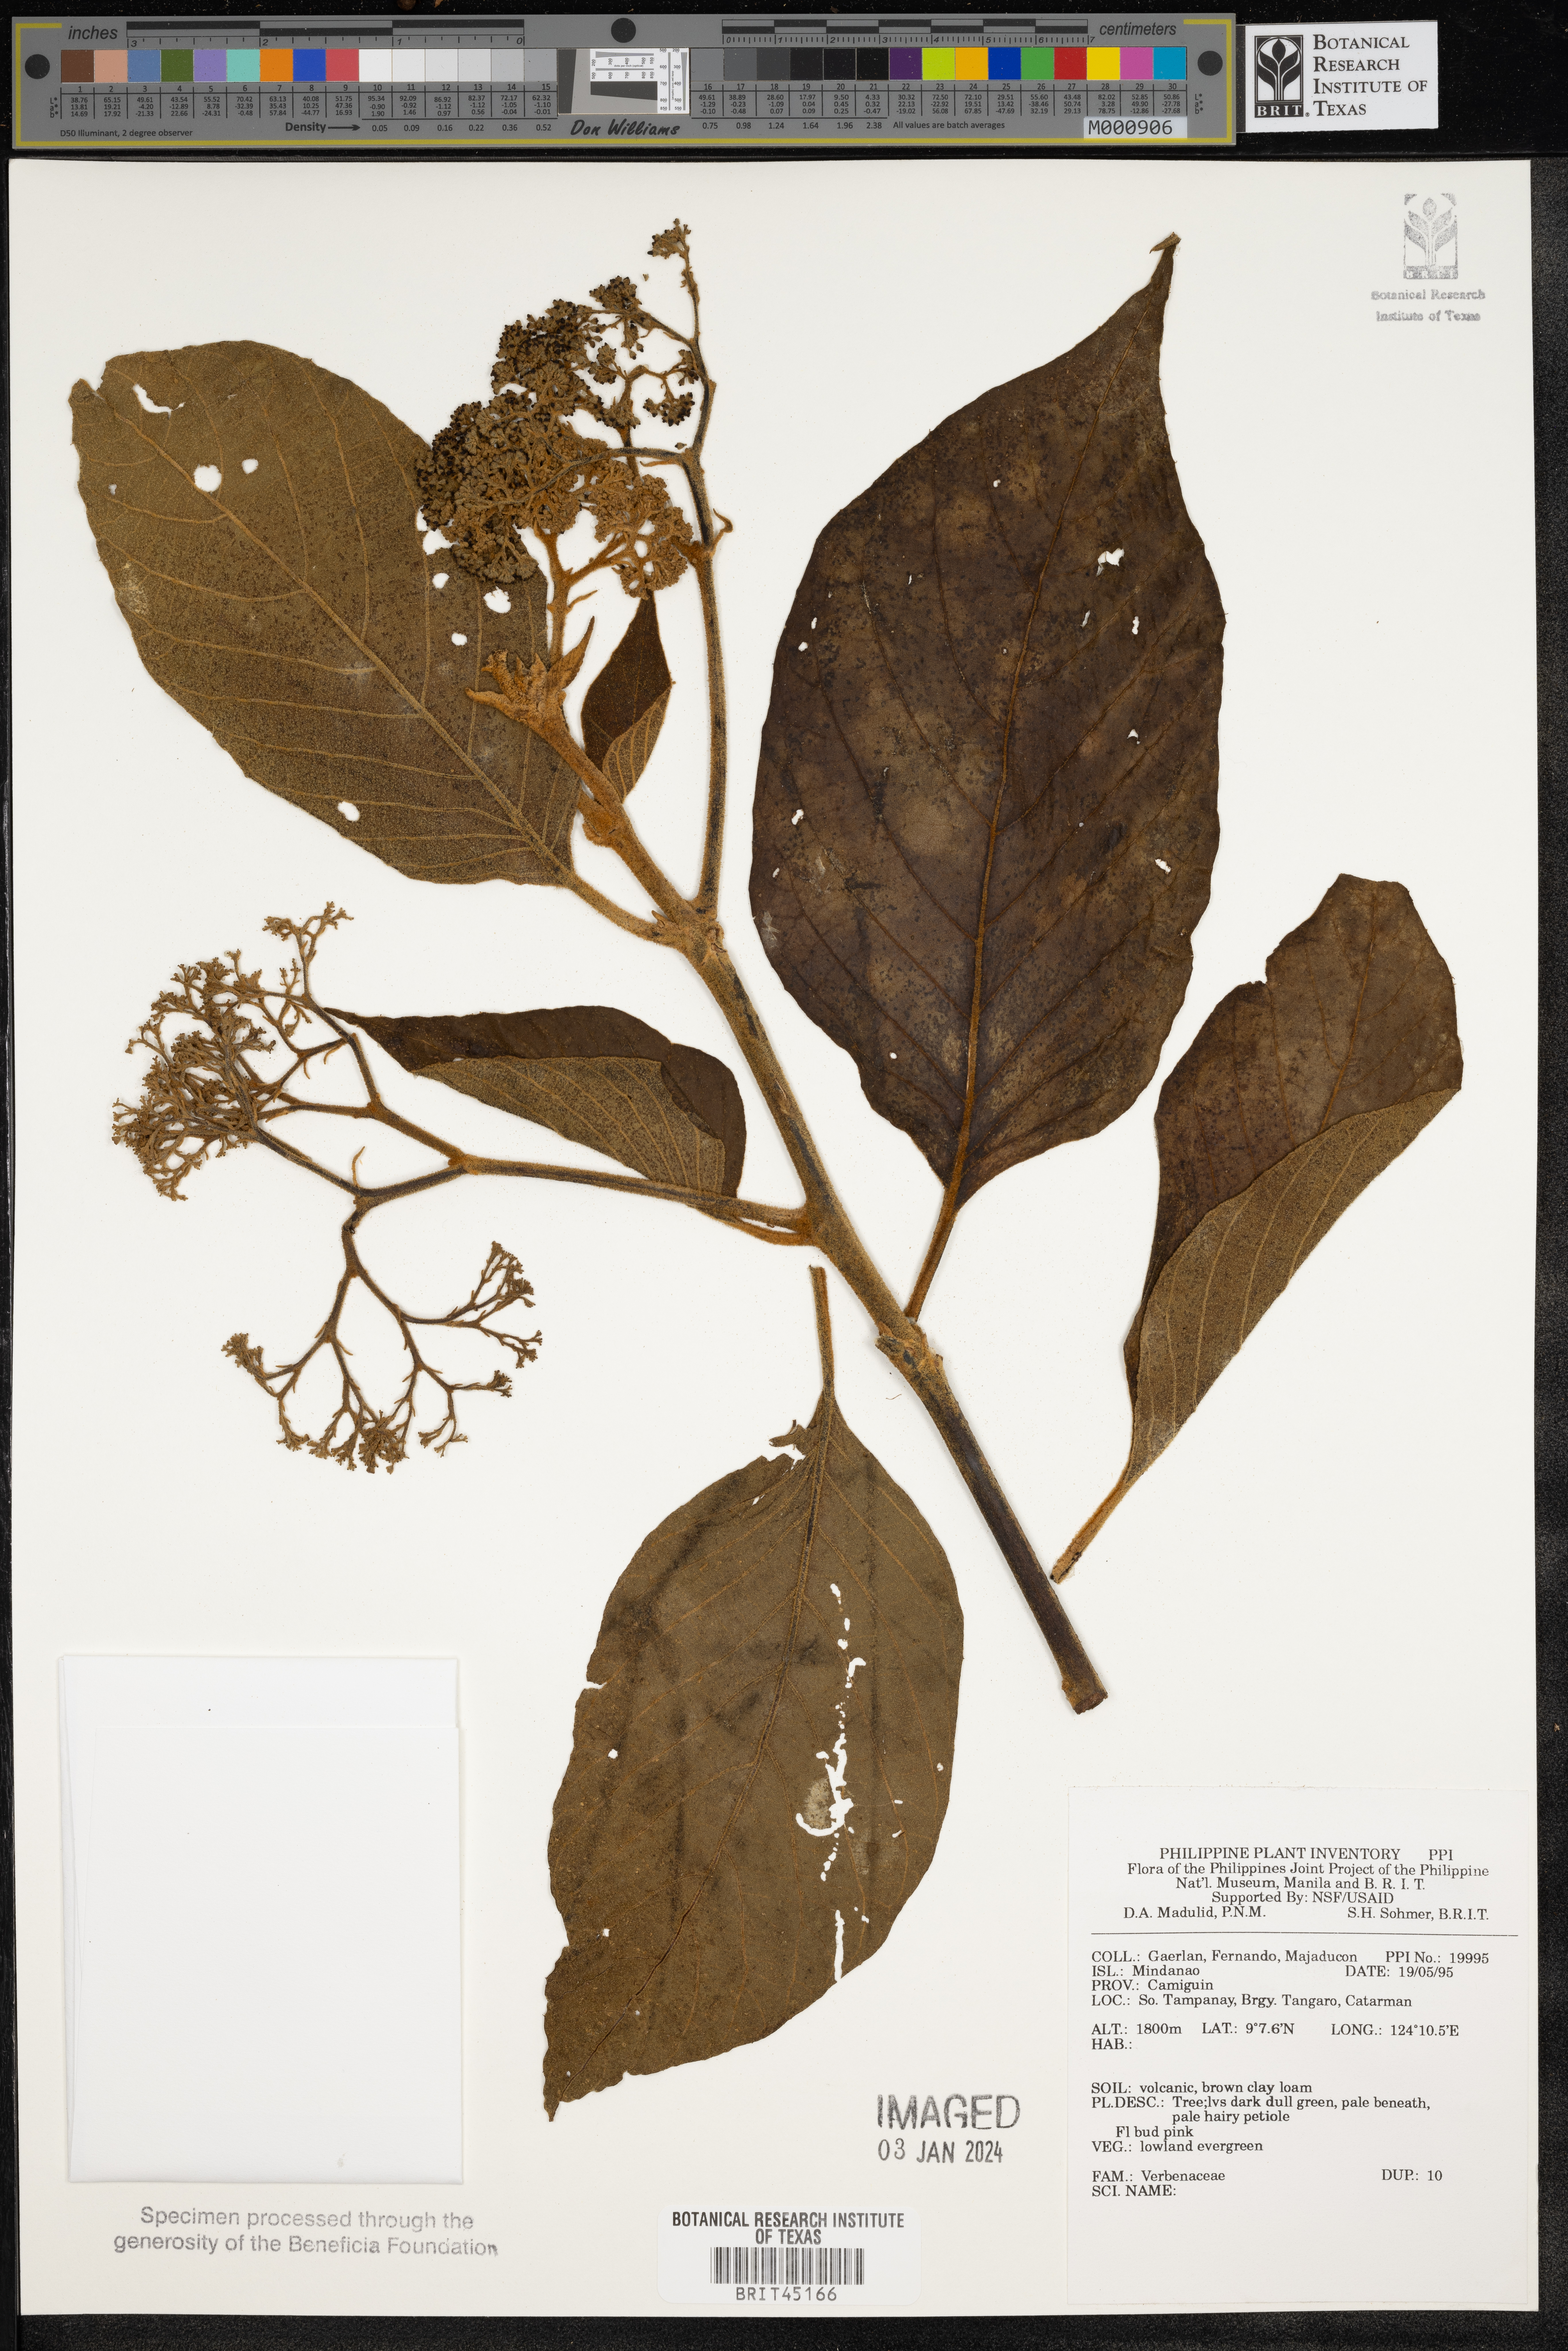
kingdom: Plantae
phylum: Tracheophyta
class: Magnoliopsida
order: Lamiales
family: Verbenaceae
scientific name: Verbenaceae
